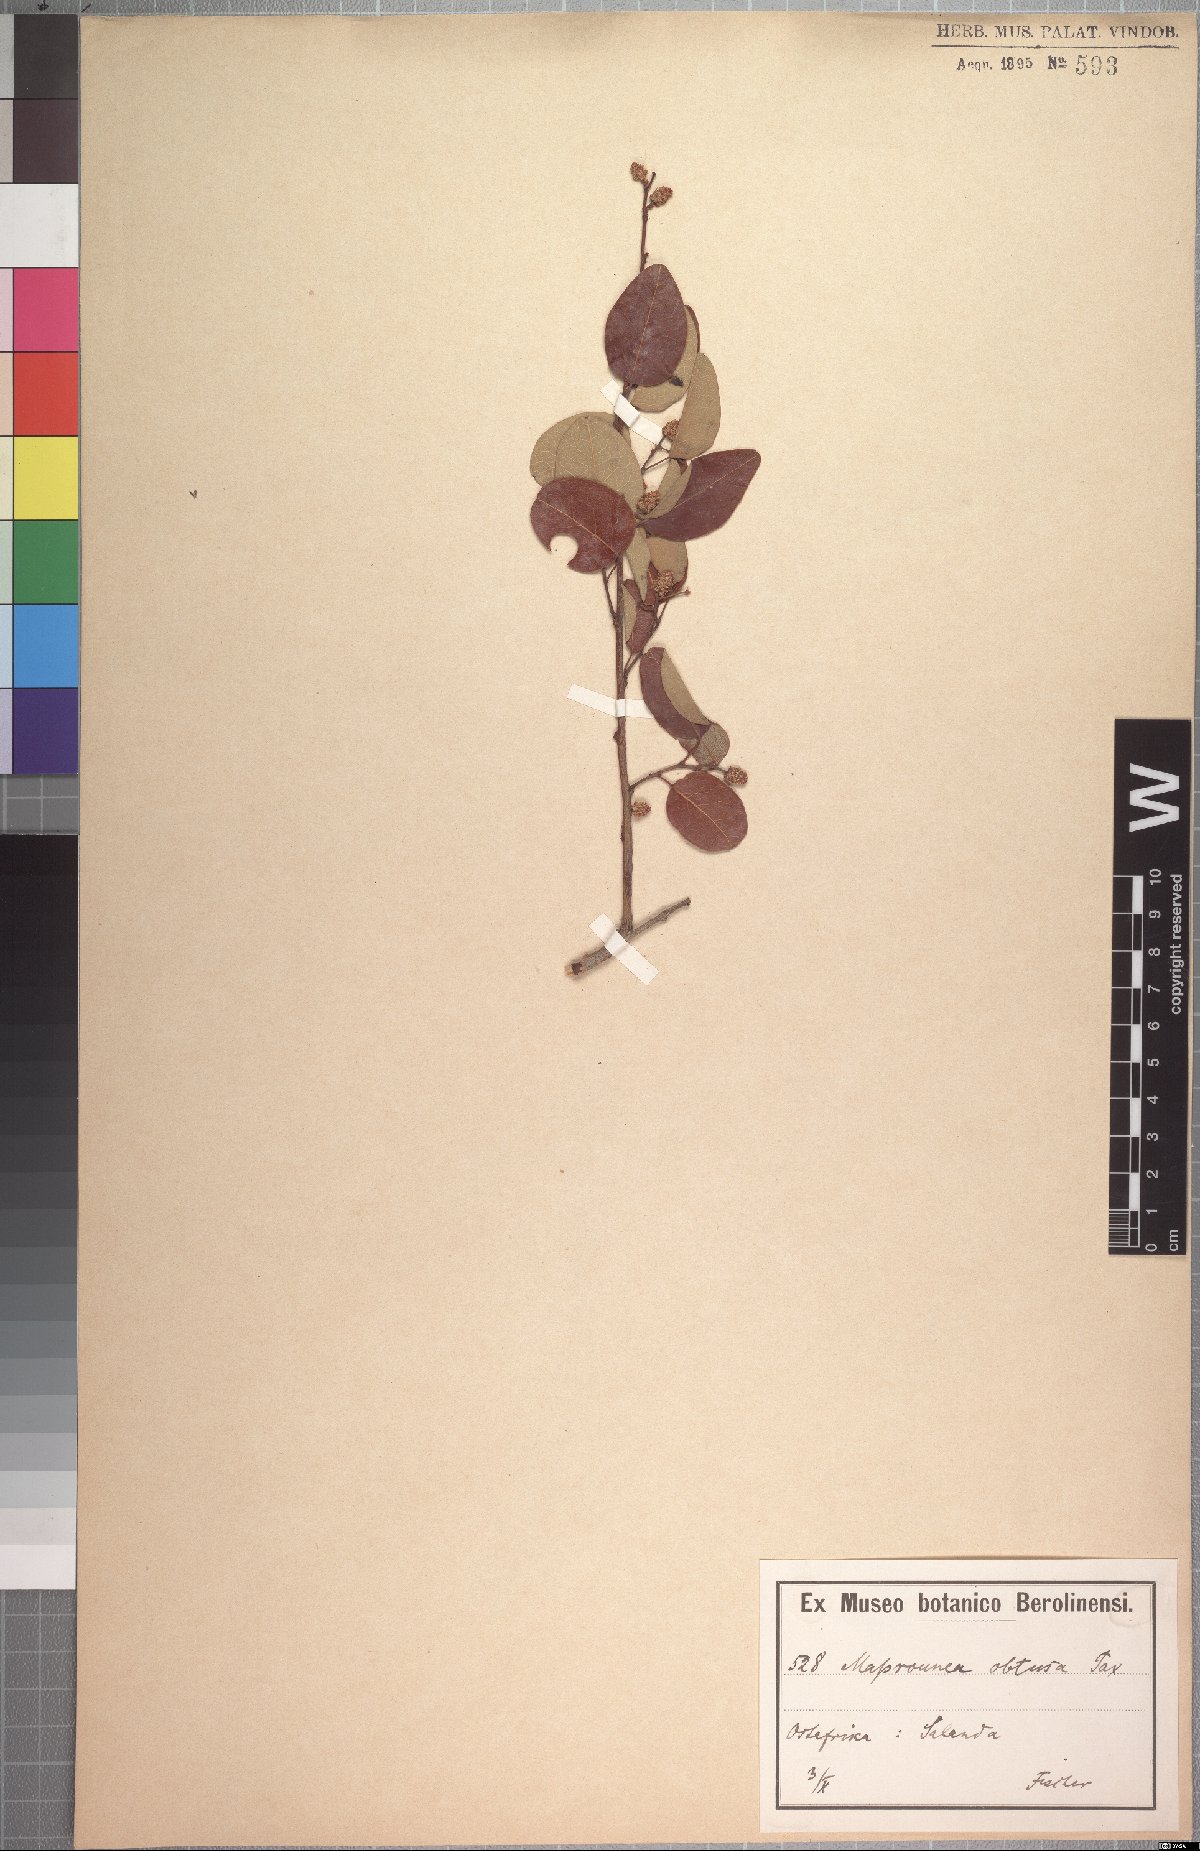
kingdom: Plantae
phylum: Tracheophyta
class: Magnoliopsida
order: Malpighiales
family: Euphorbiaceae
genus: Maprounea
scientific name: Maprounea africana
